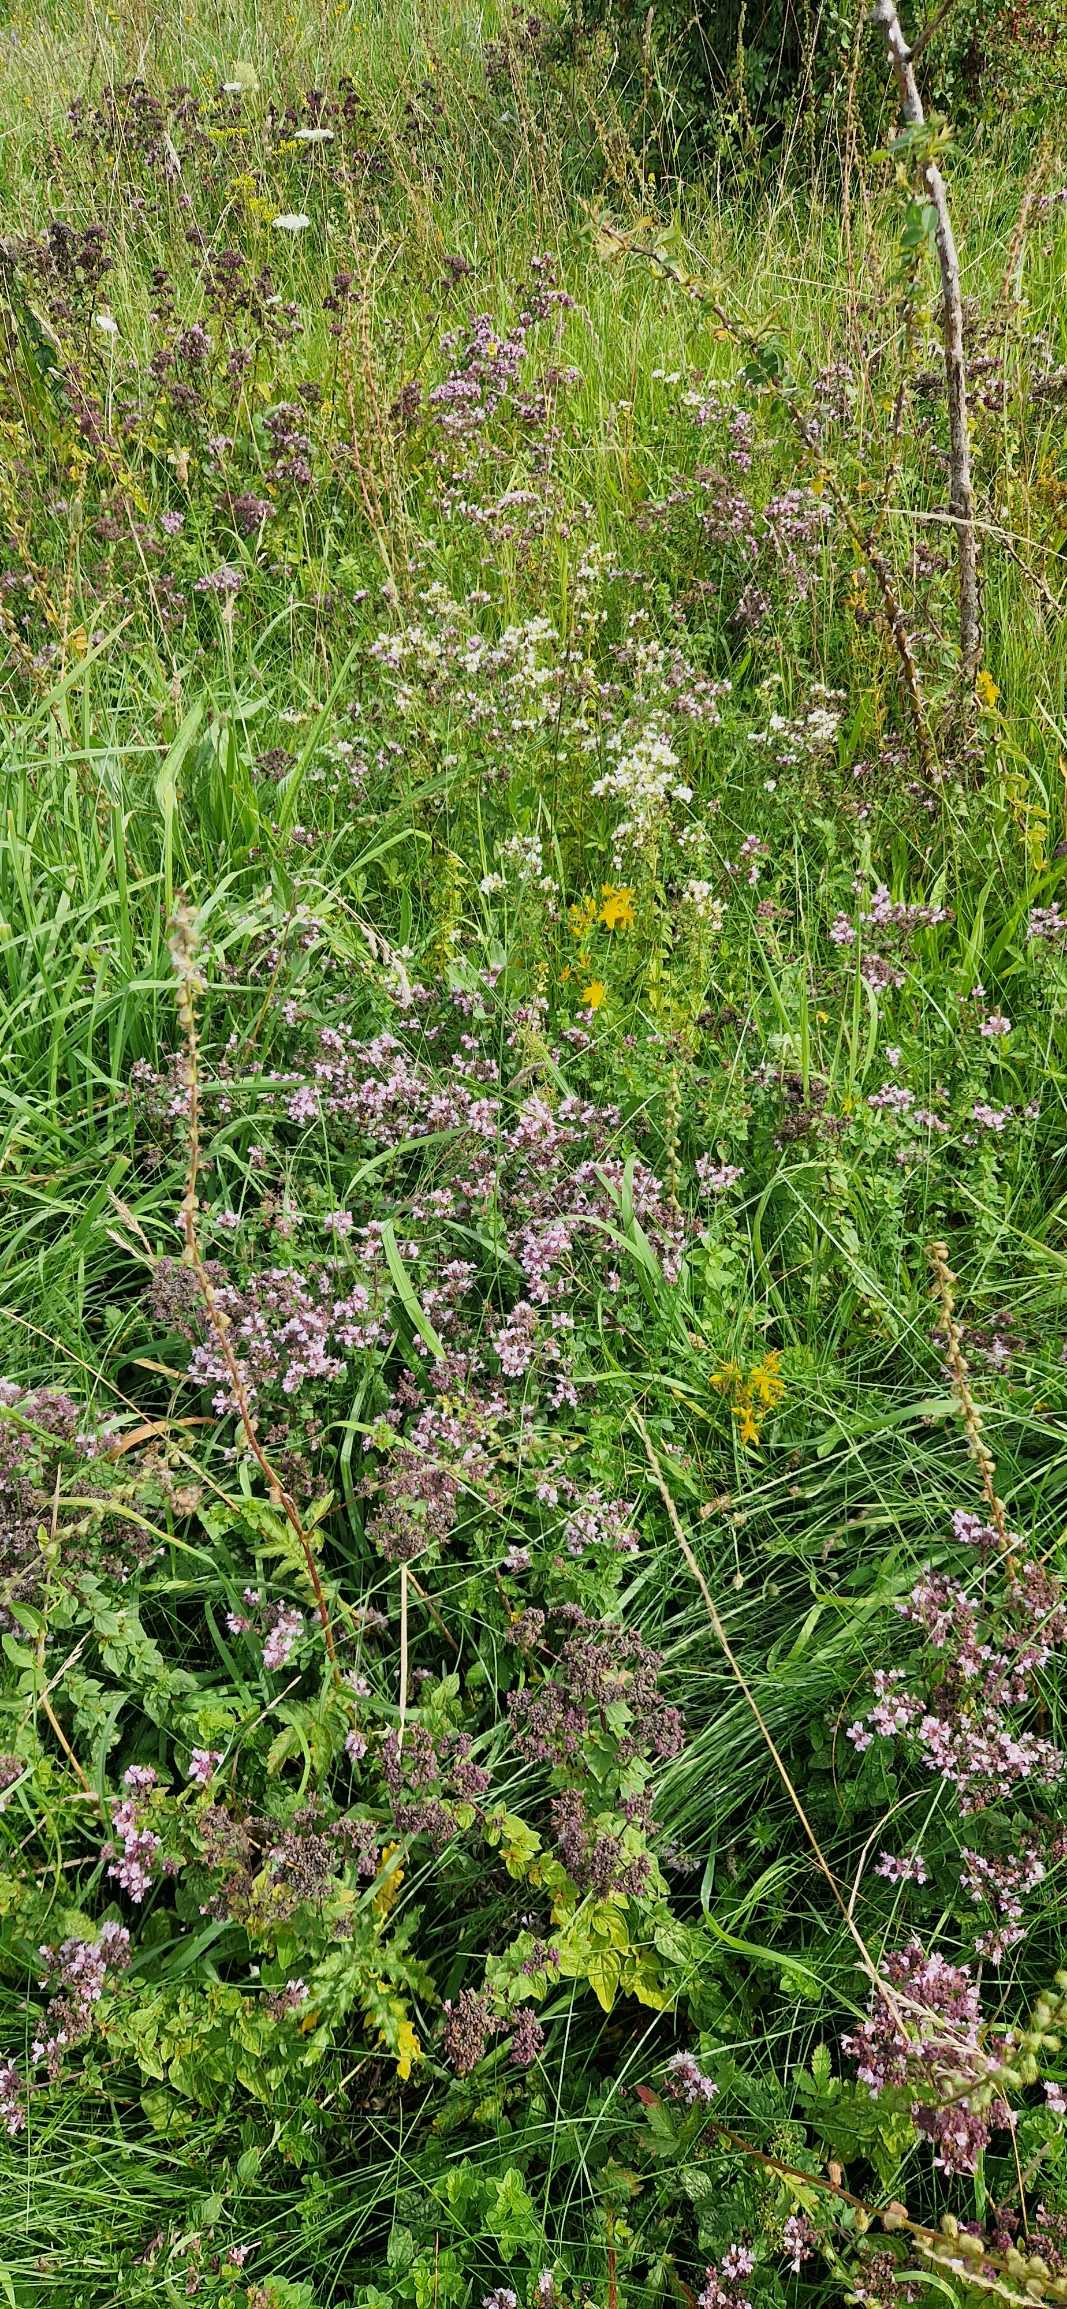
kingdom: Plantae
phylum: Tracheophyta
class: Magnoliopsida
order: Lamiales
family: Lamiaceae
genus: Origanum
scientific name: Origanum vulgare
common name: Merian
